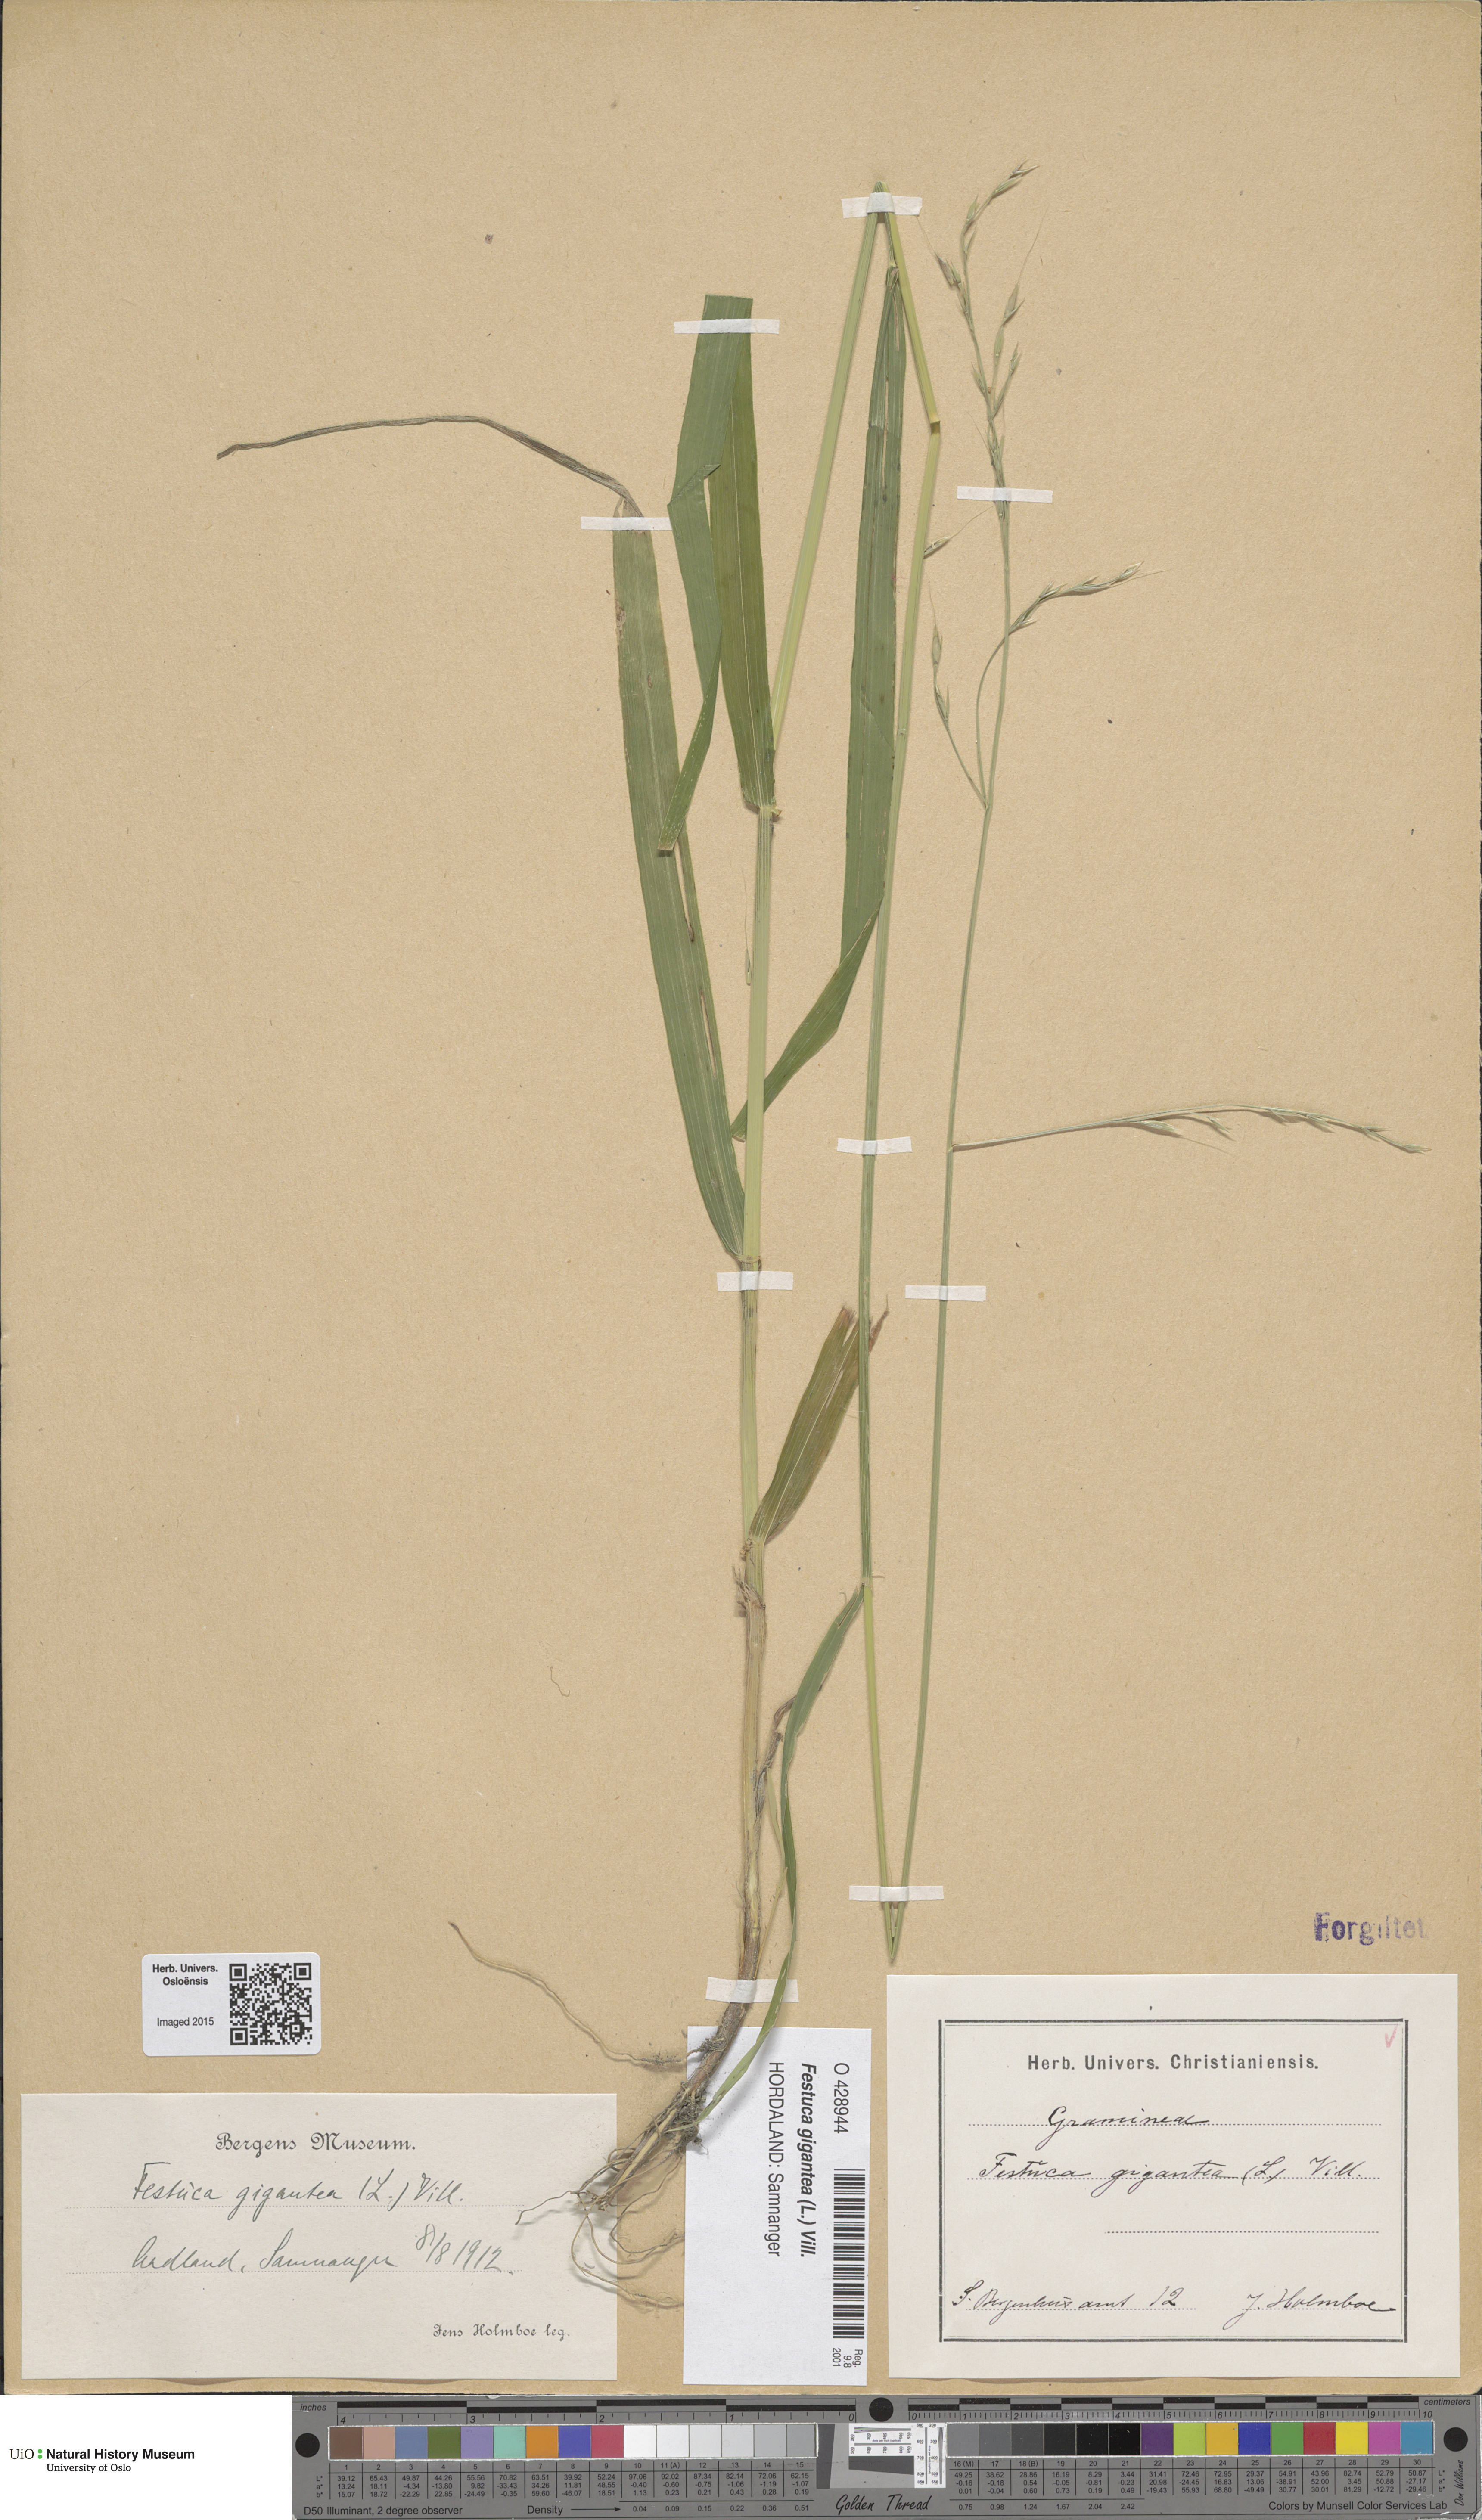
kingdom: Plantae
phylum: Tracheophyta
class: Liliopsida
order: Poales
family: Poaceae
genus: Lolium
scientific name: Lolium giganteum
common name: Giant fescue
